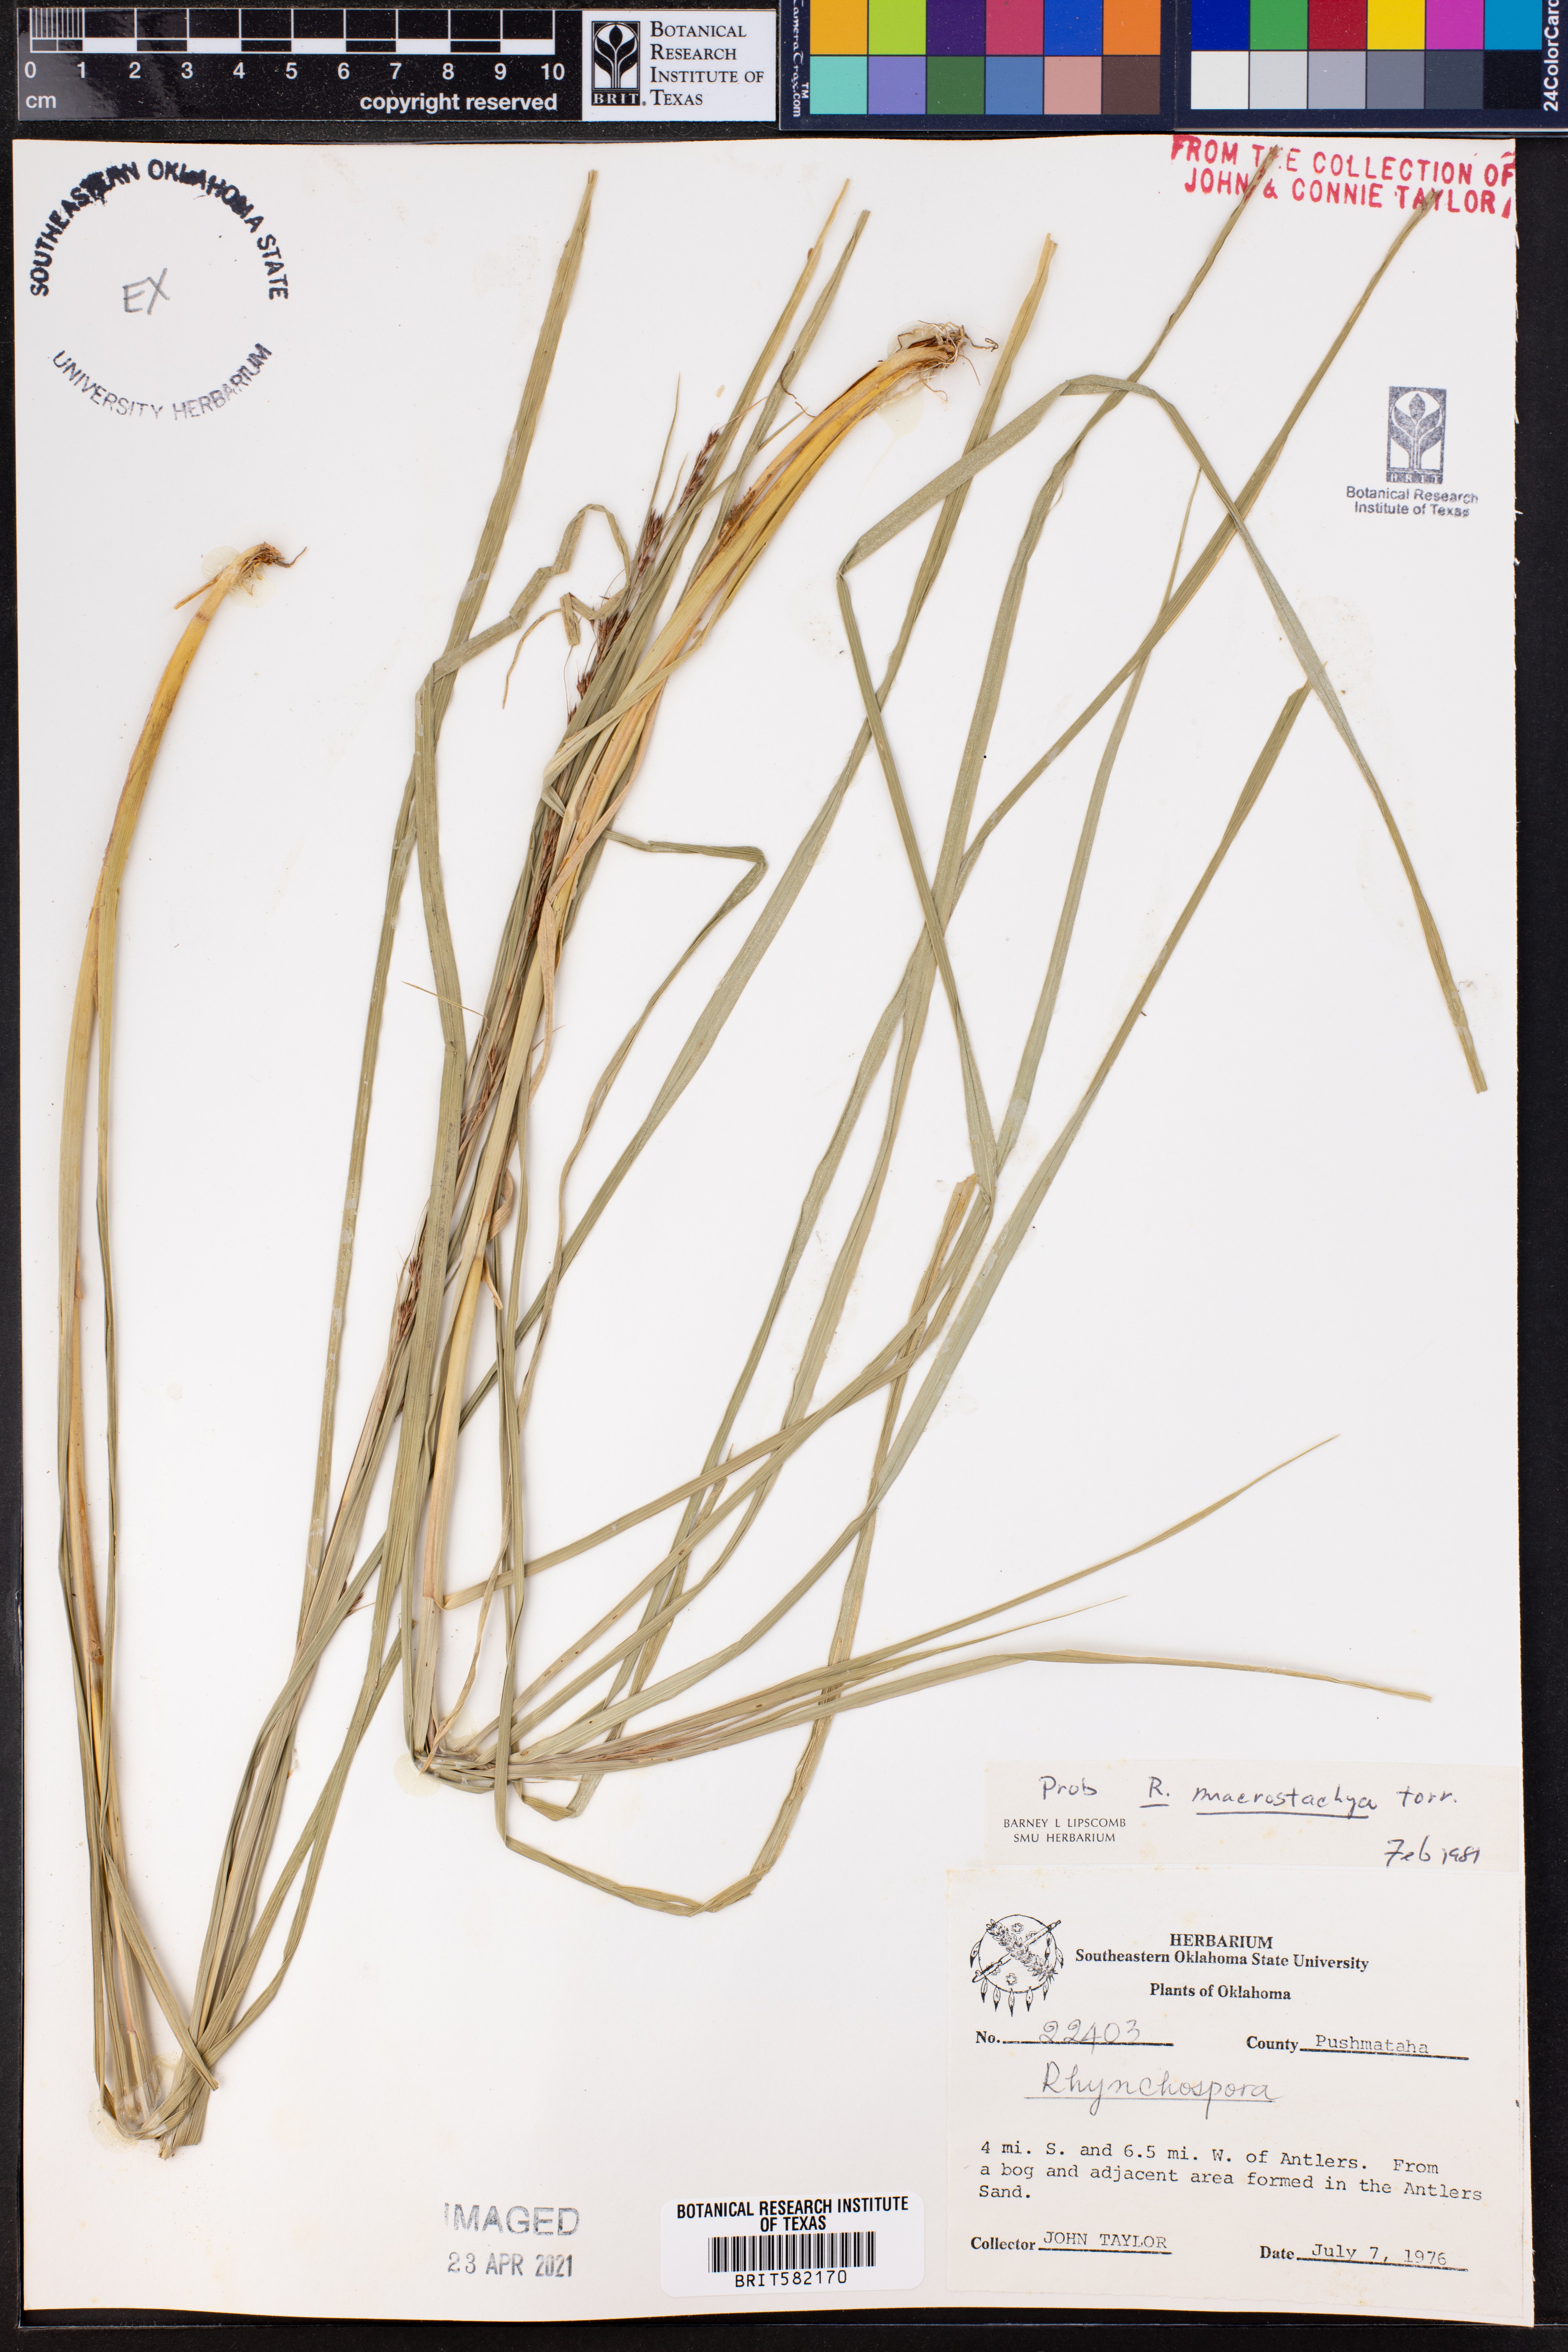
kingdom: Plantae
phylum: Tracheophyta
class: Liliopsida
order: Poales
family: Cyperaceae
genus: Rhynchospora
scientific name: Rhynchospora macrostachya
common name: Tall beakrush
